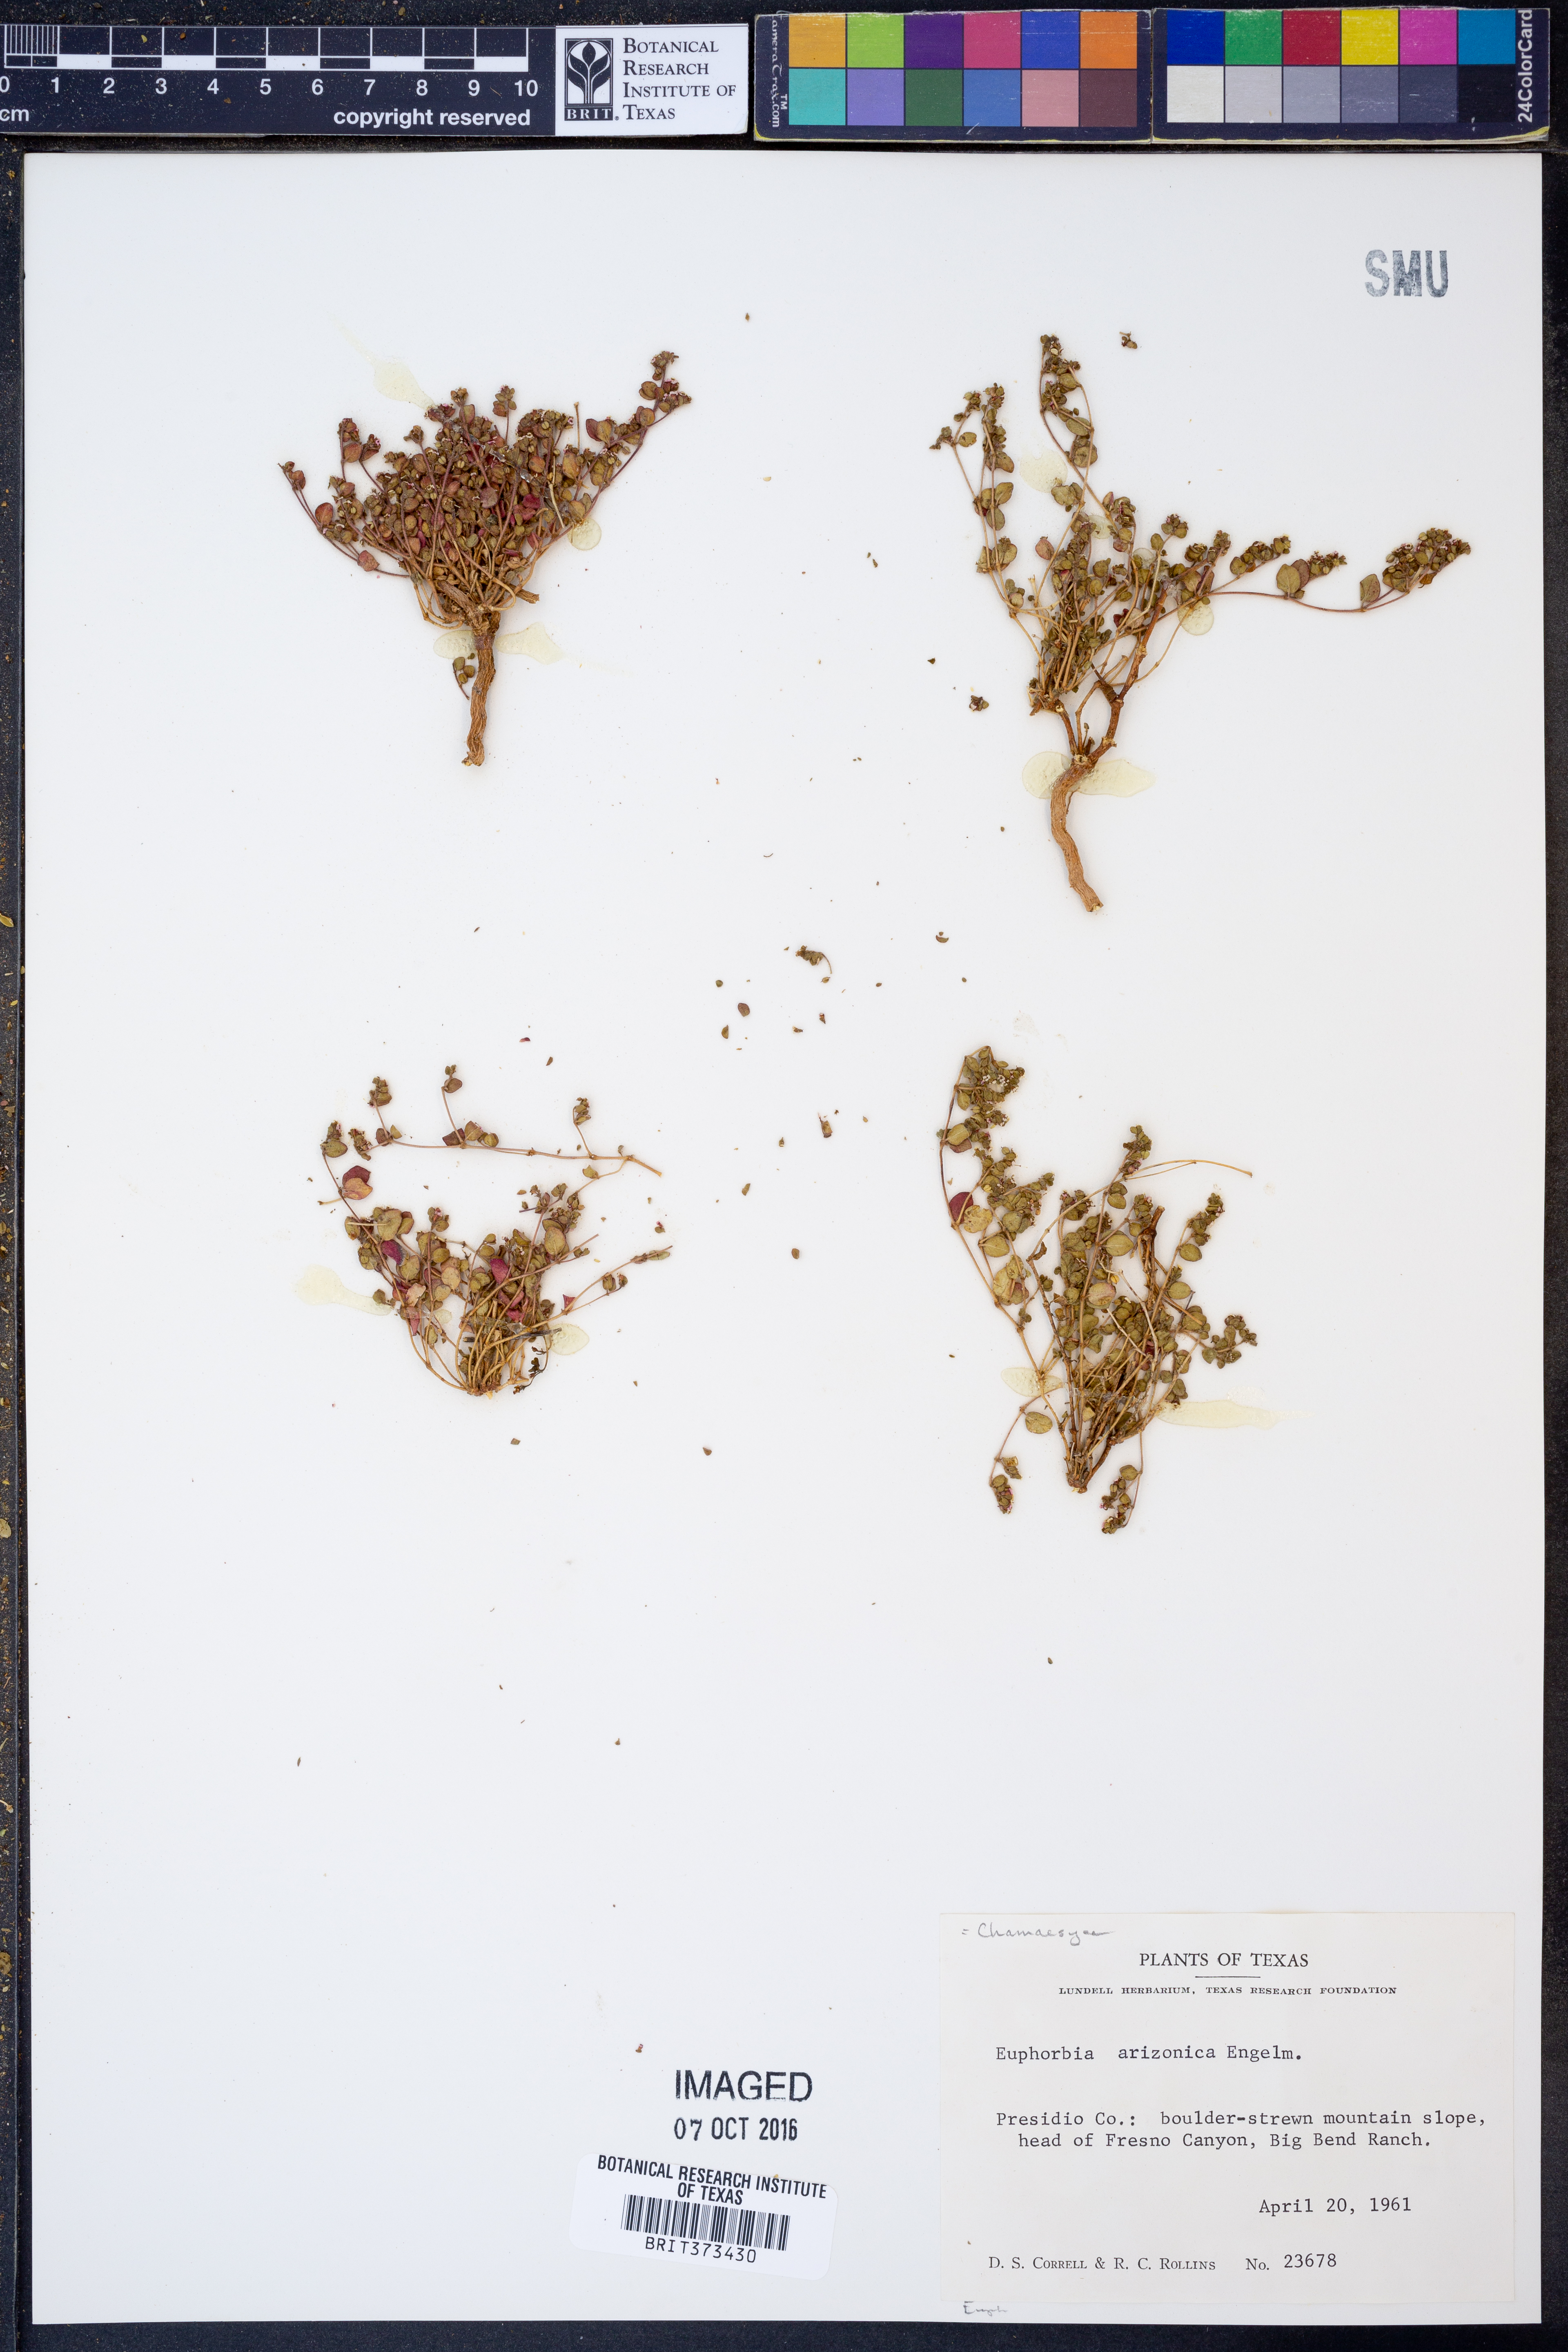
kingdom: Plantae
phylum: Tracheophyta
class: Magnoliopsida
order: Malpighiales
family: Euphorbiaceae
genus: Euphorbia
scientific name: Euphorbia arizonica
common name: Arizona spurge
